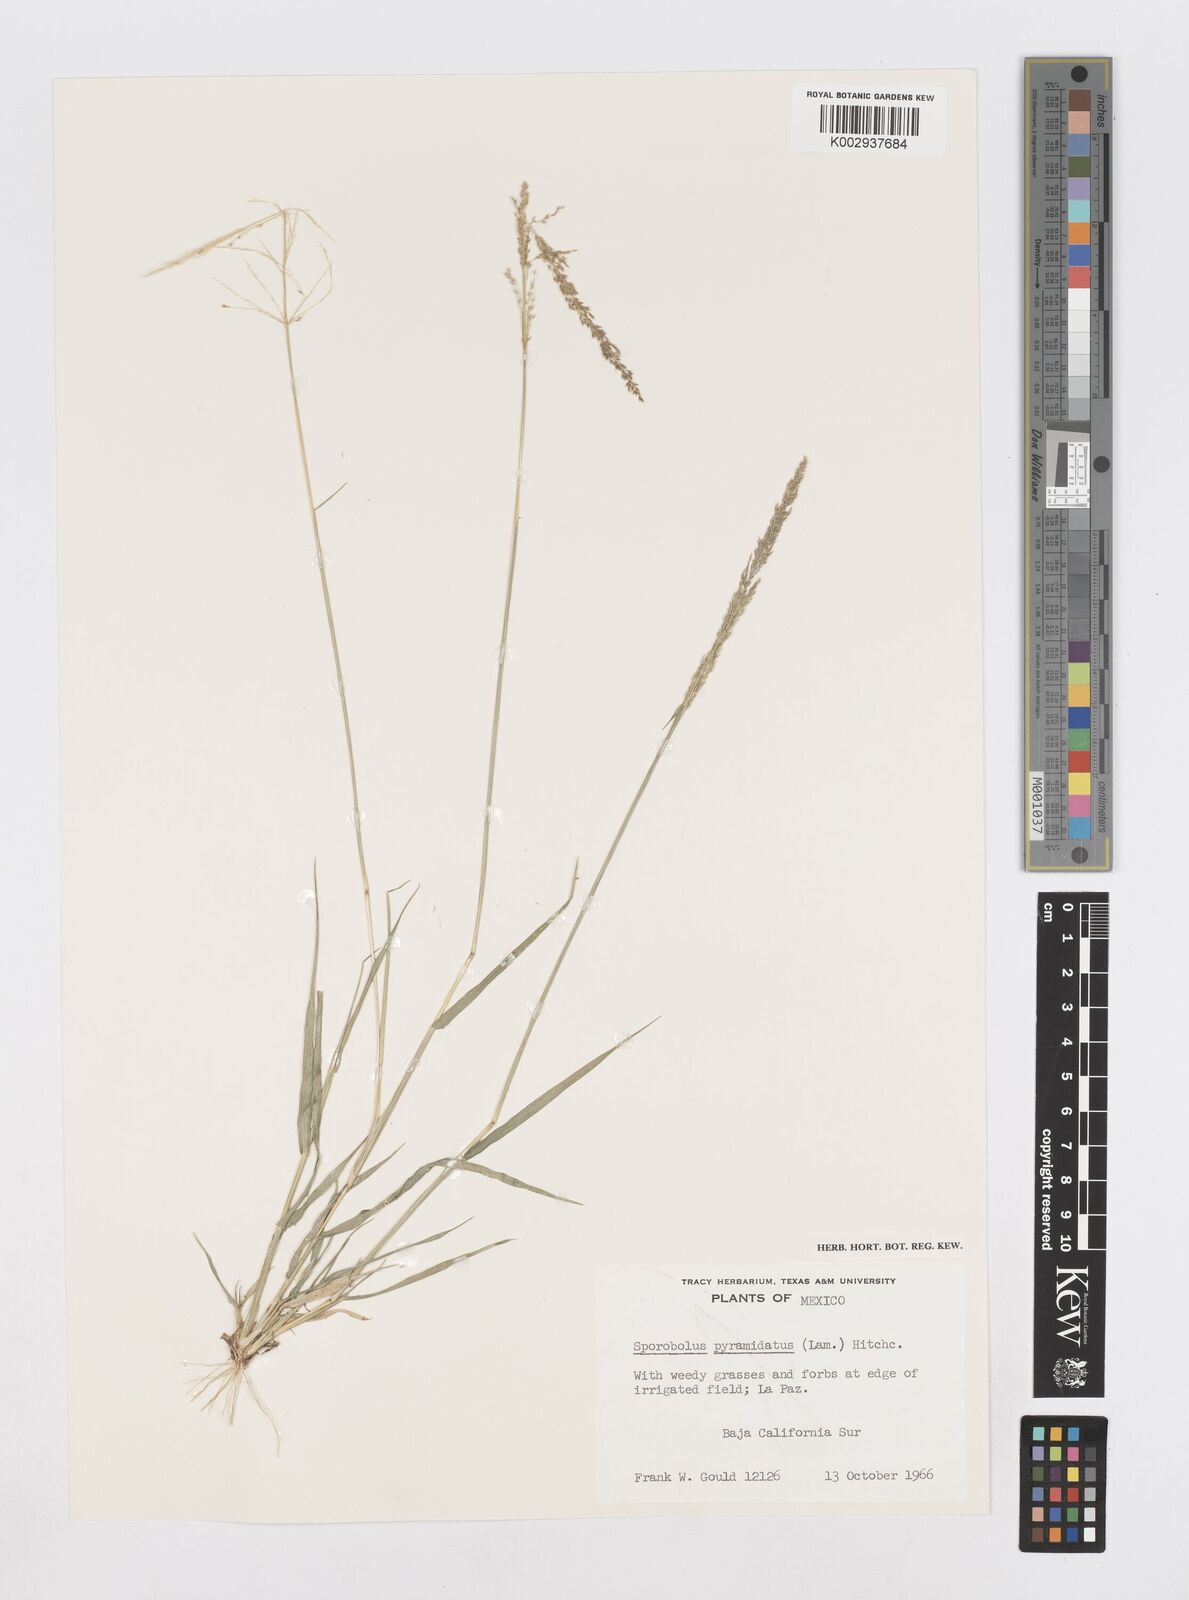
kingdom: Plantae
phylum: Tracheophyta
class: Liliopsida
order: Poales
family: Poaceae
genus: Sporobolus
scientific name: Sporobolus pyramidatus
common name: Whorled dropseed
